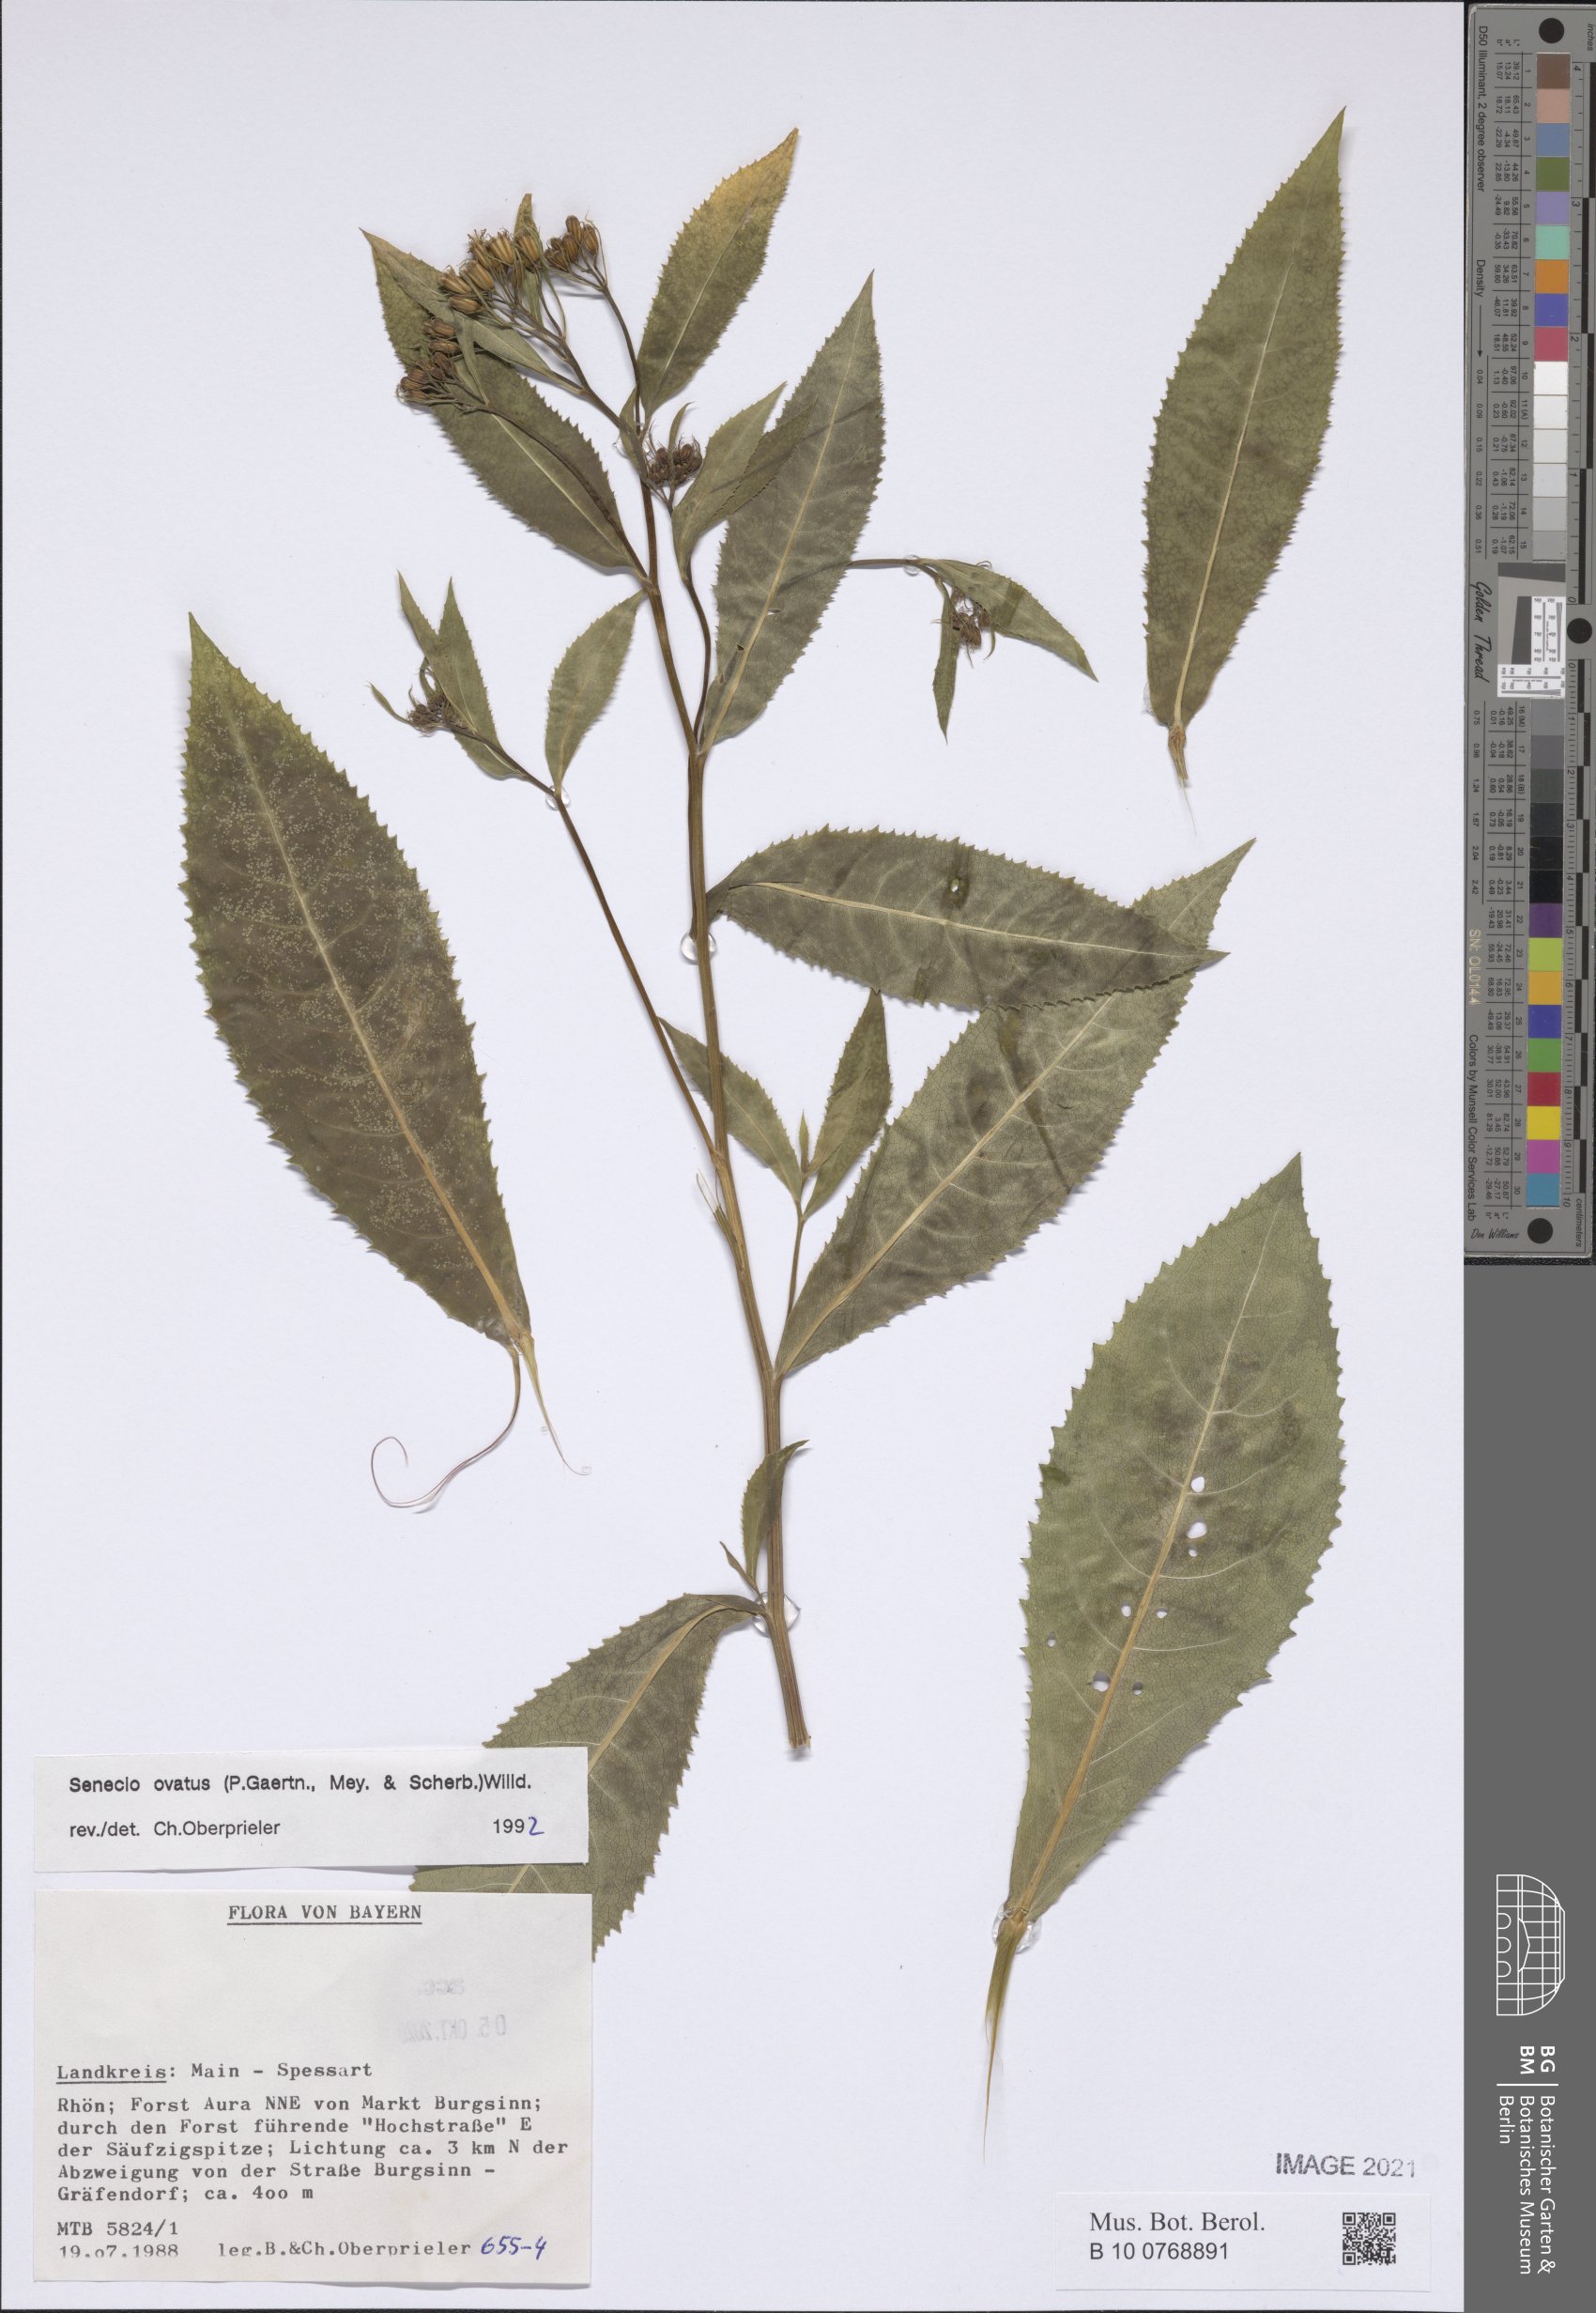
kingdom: Plantae
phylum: Tracheophyta
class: Magnoliopsida
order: Asterales
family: Asteraceae
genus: Senecio
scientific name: Senecio ovatus
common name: Wood ragwort
